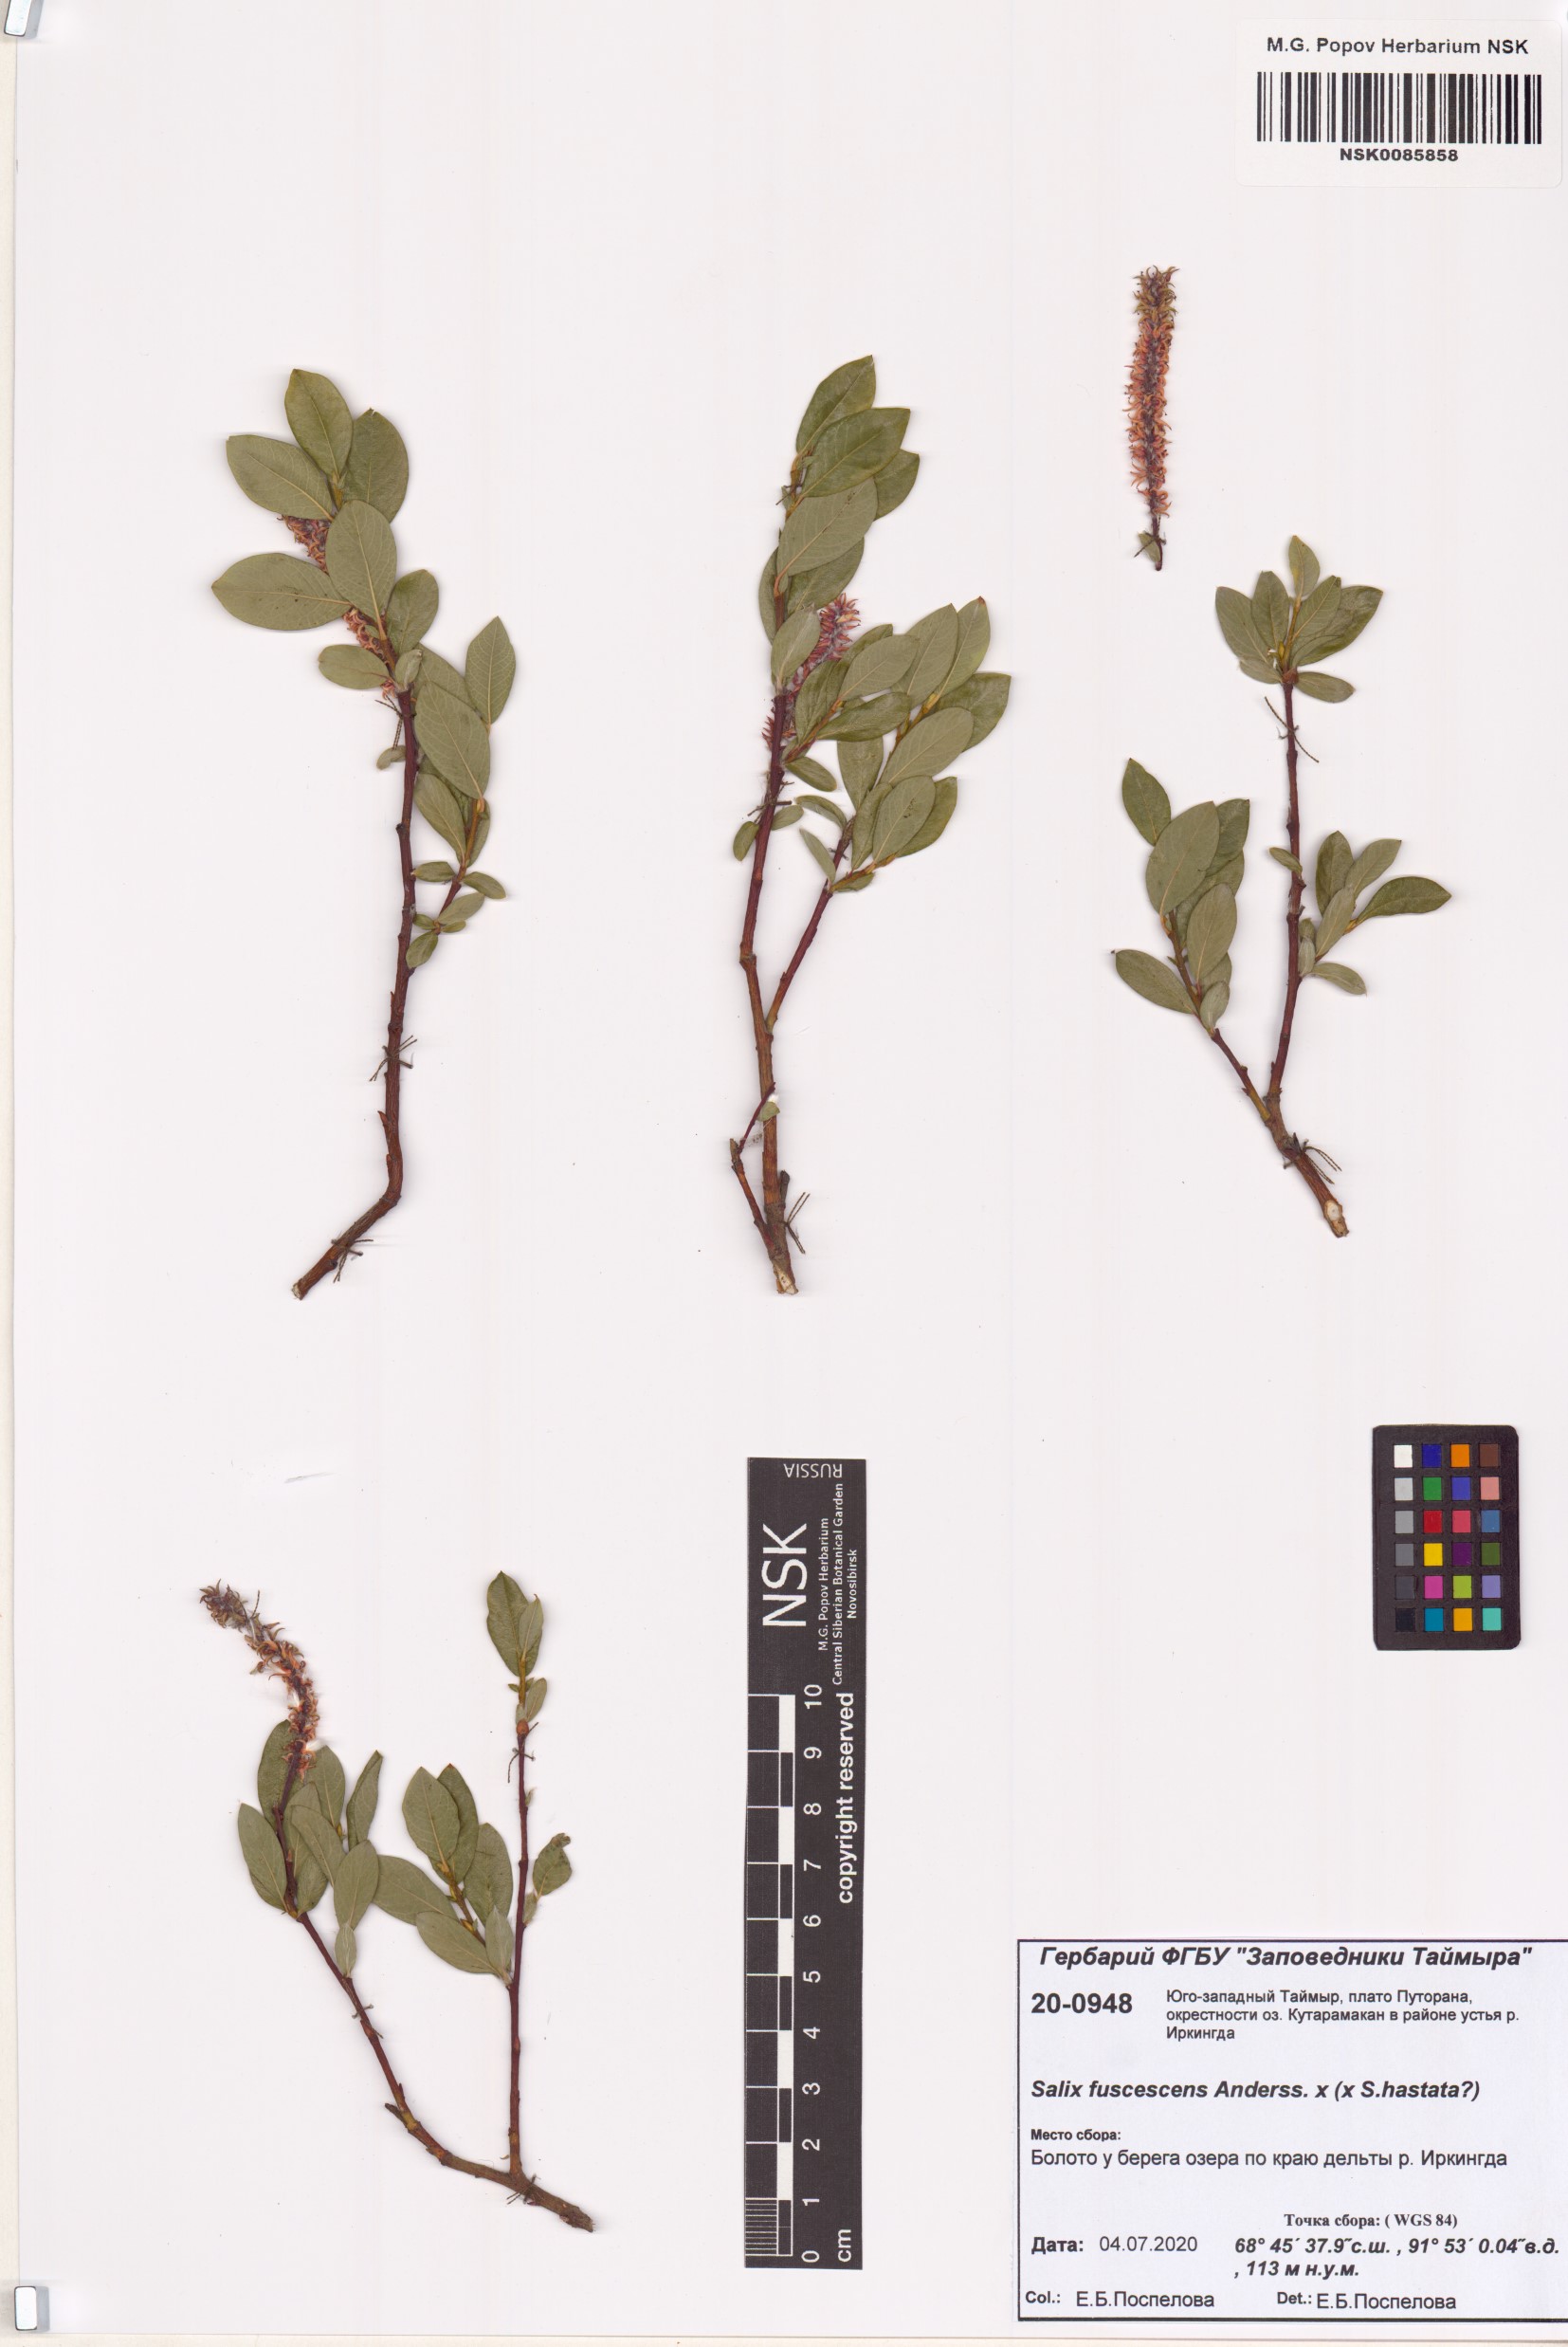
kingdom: Plantae
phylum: Tracheophyta
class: Magnoliopsida
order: Malpighiales
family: Salicaceae
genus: Salix
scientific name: Salix fuscescens
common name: Brownish willow
